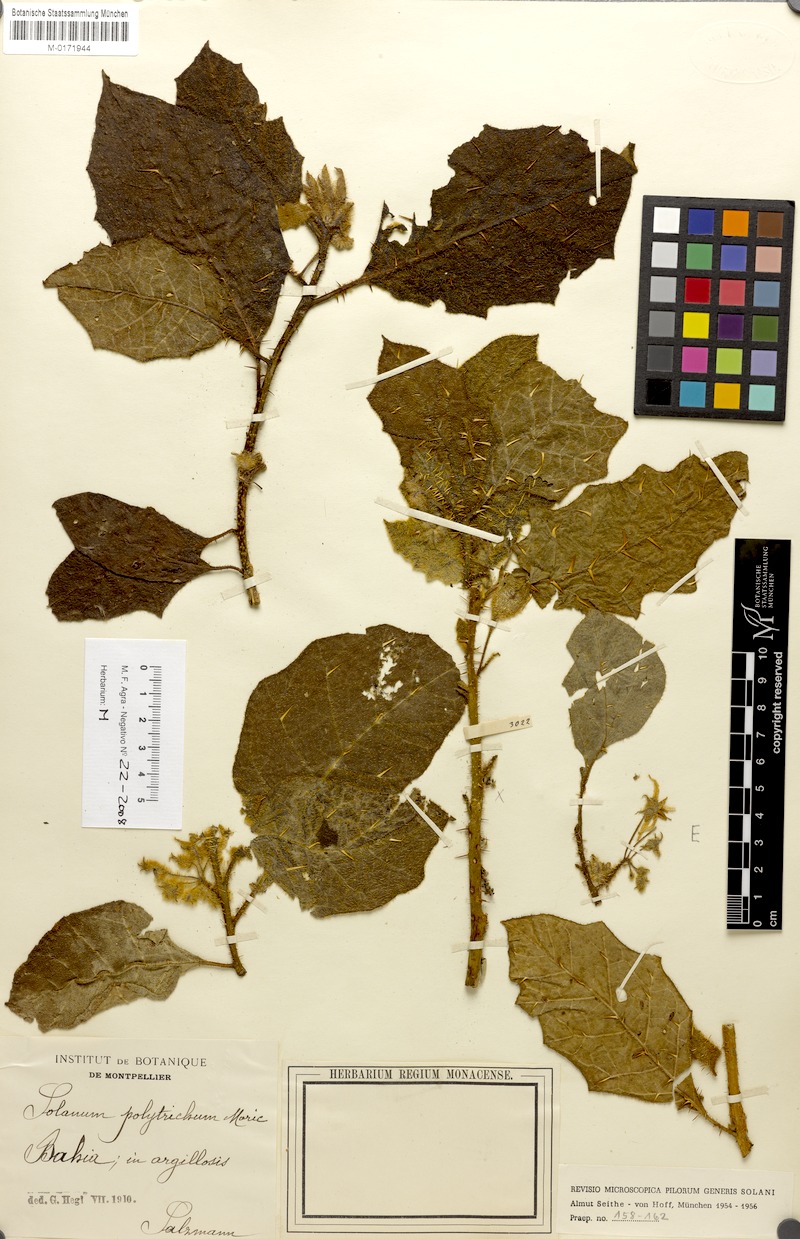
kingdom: Plantae
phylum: Tracheophyta
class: Magnoliopsida
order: Solanales
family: Solanaceae
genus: Solanum
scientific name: Solanum polytrichum
